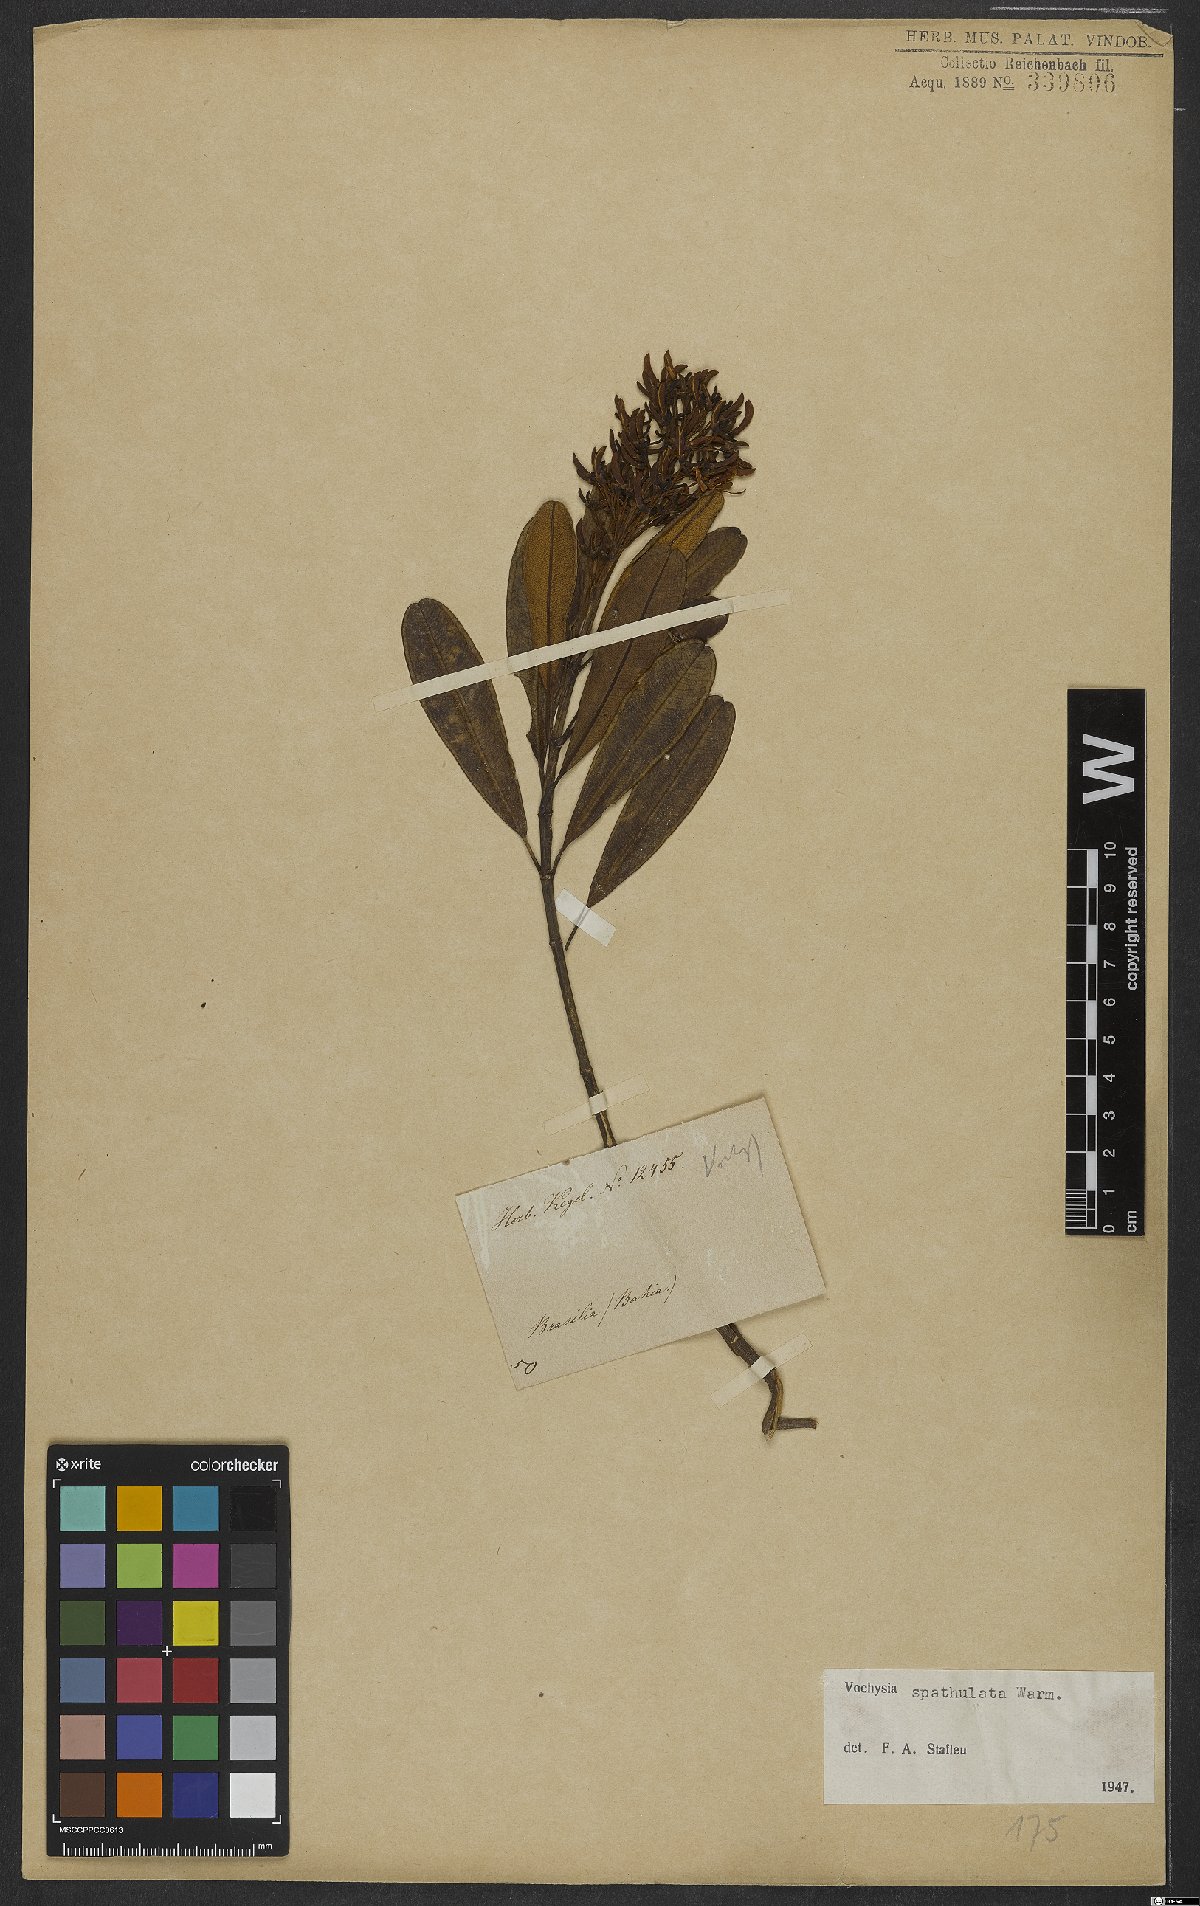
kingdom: Plantae
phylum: Tracheophyta
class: Magnoliopsida
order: Myrtales
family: Vochysiaceae
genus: Vochysia
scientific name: Vochysia spathulata
